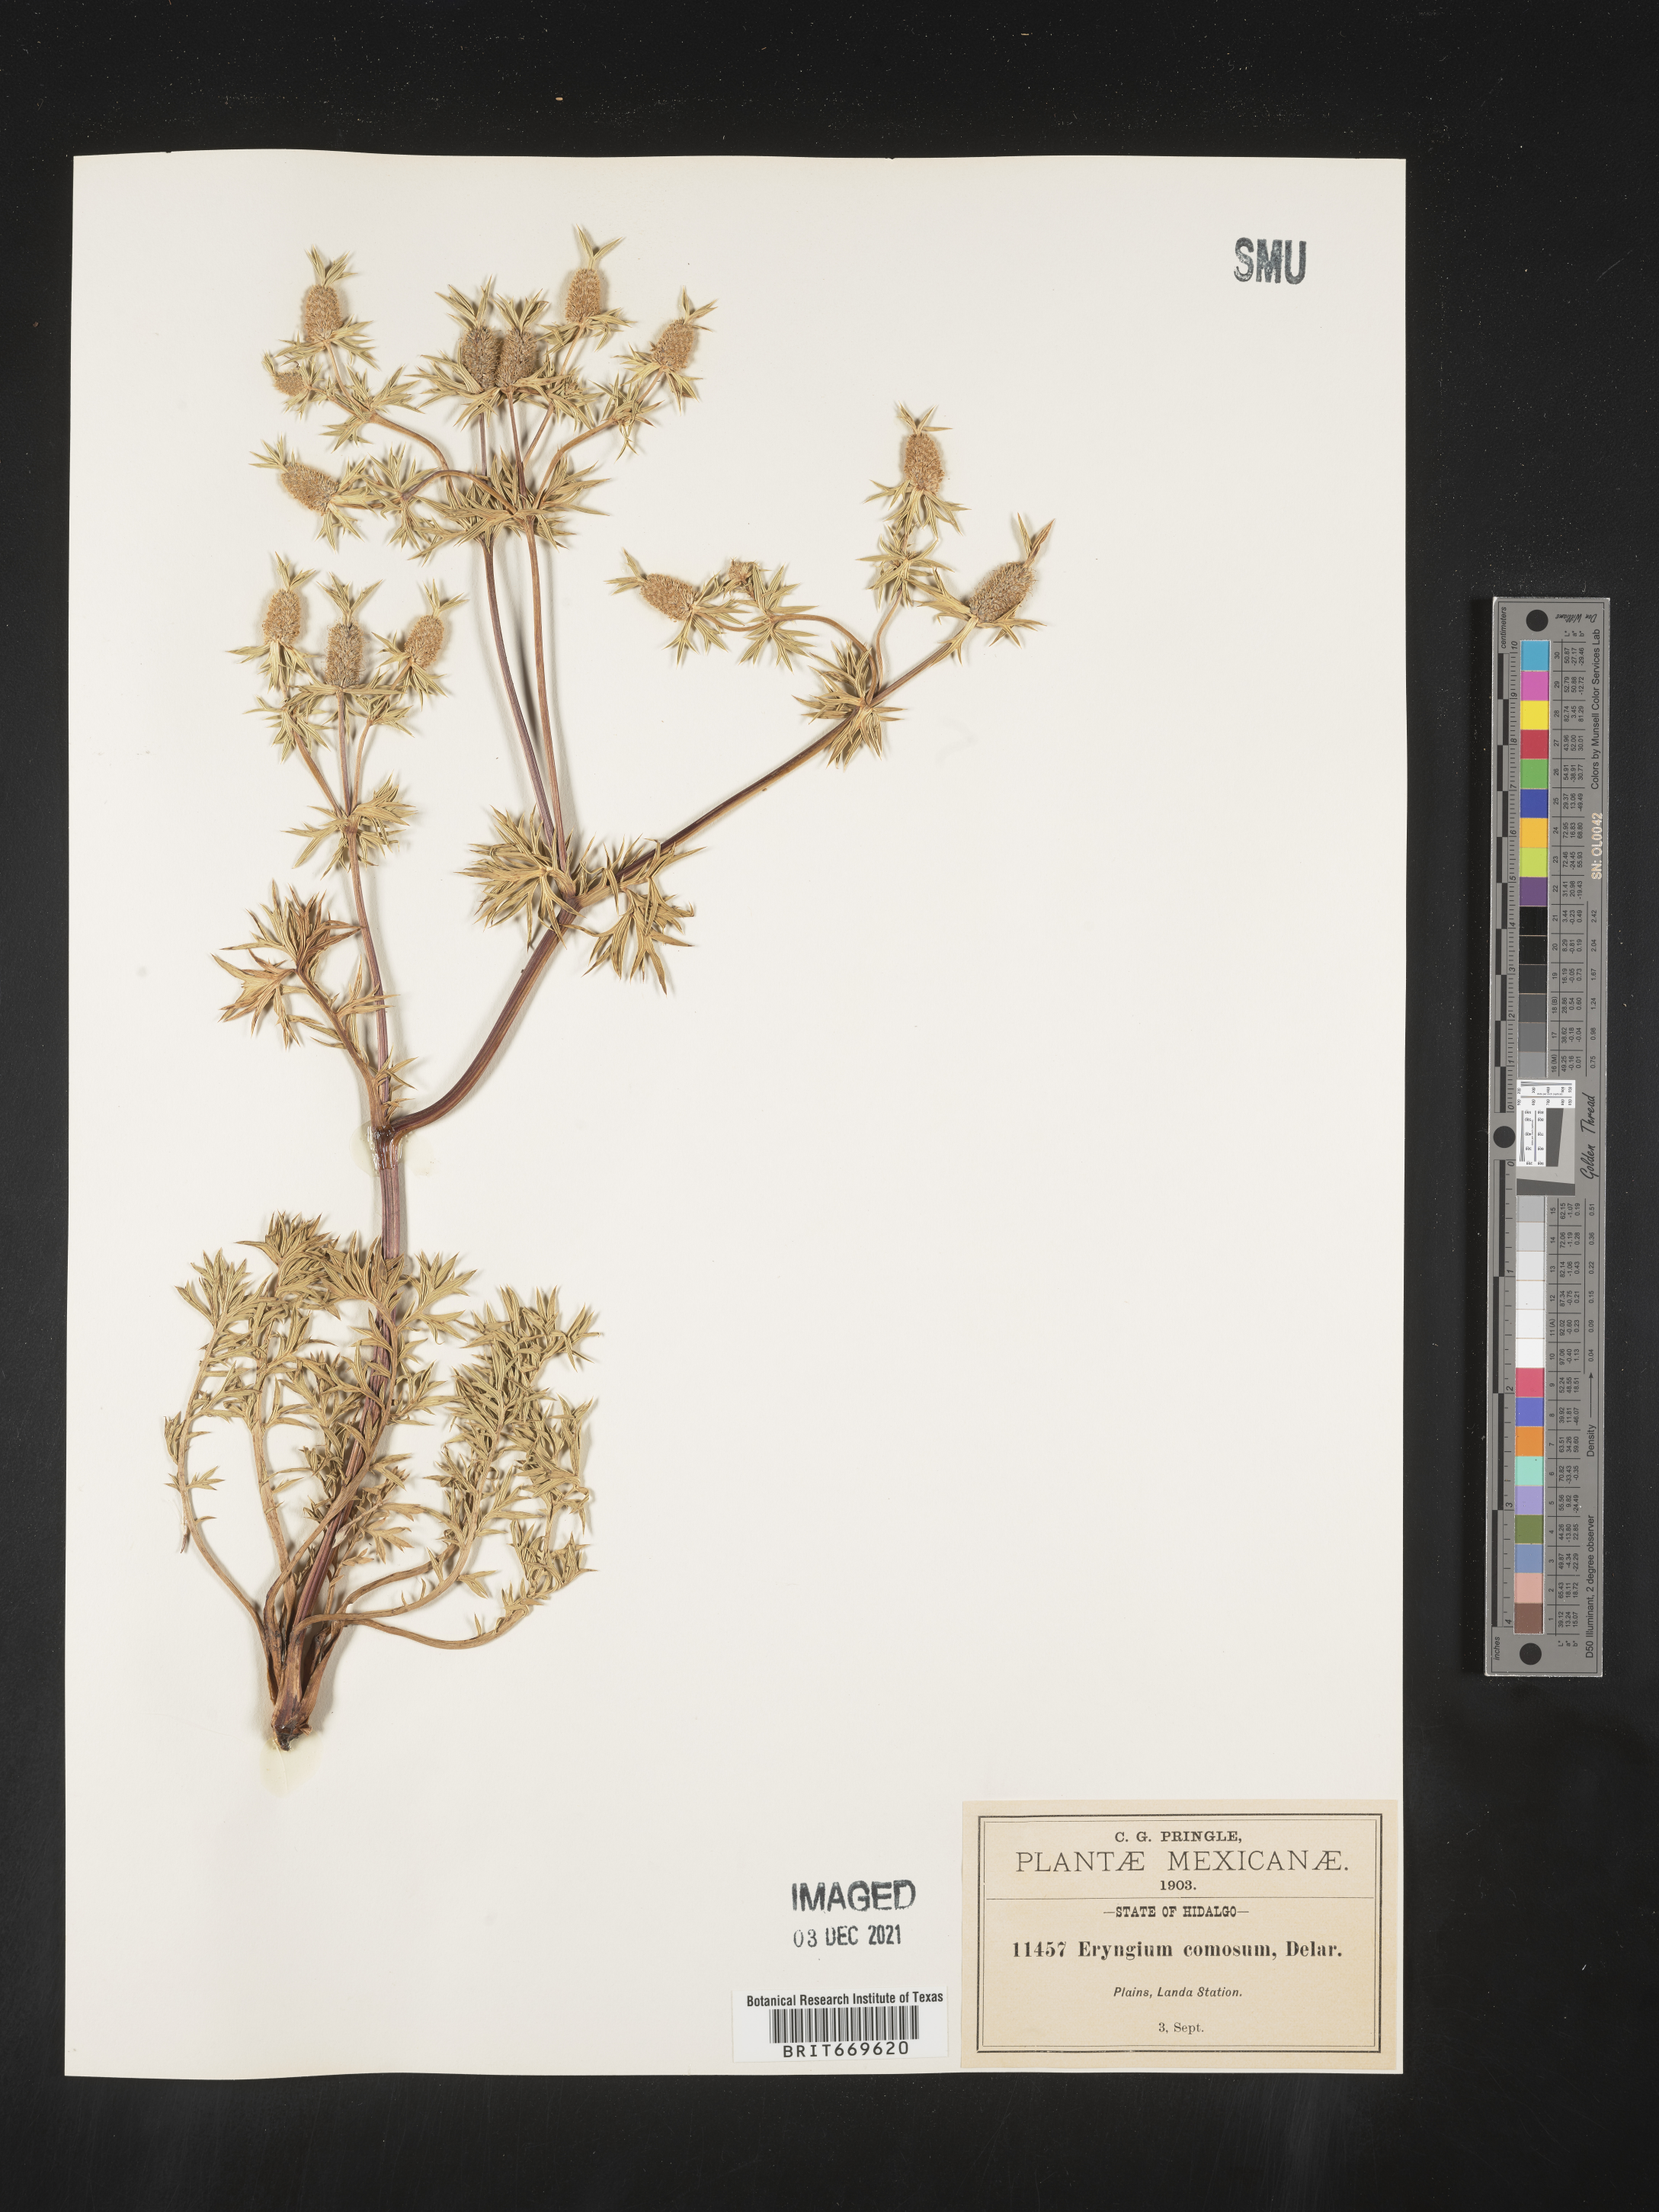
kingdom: Plantae
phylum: Tracheophyta
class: Magnoliopsida
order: Apiales
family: Apiaceae
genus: Eryngium
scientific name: Eryngium
